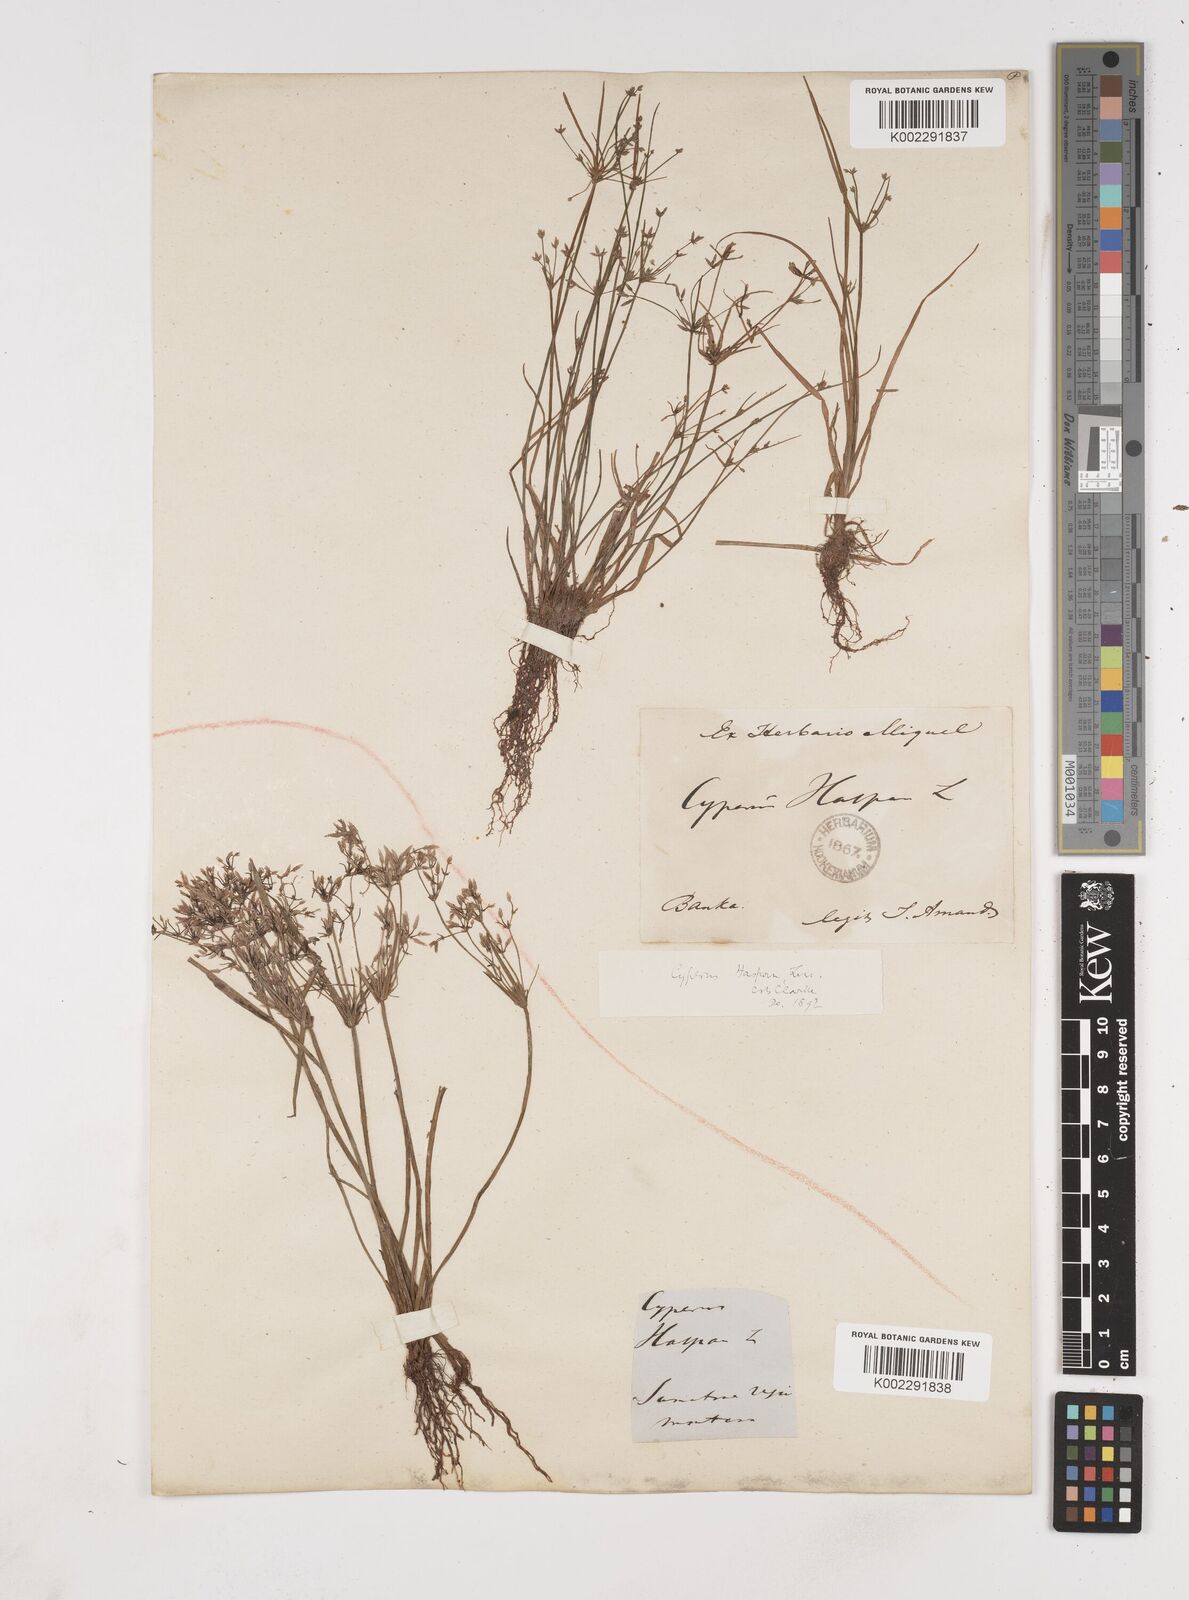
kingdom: Plantae
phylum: Tracheophyta
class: Liliopsida
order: Poales
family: Cyperaceae
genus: Cyperus
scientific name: Cyperus haspan
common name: Haspan flatsedge
